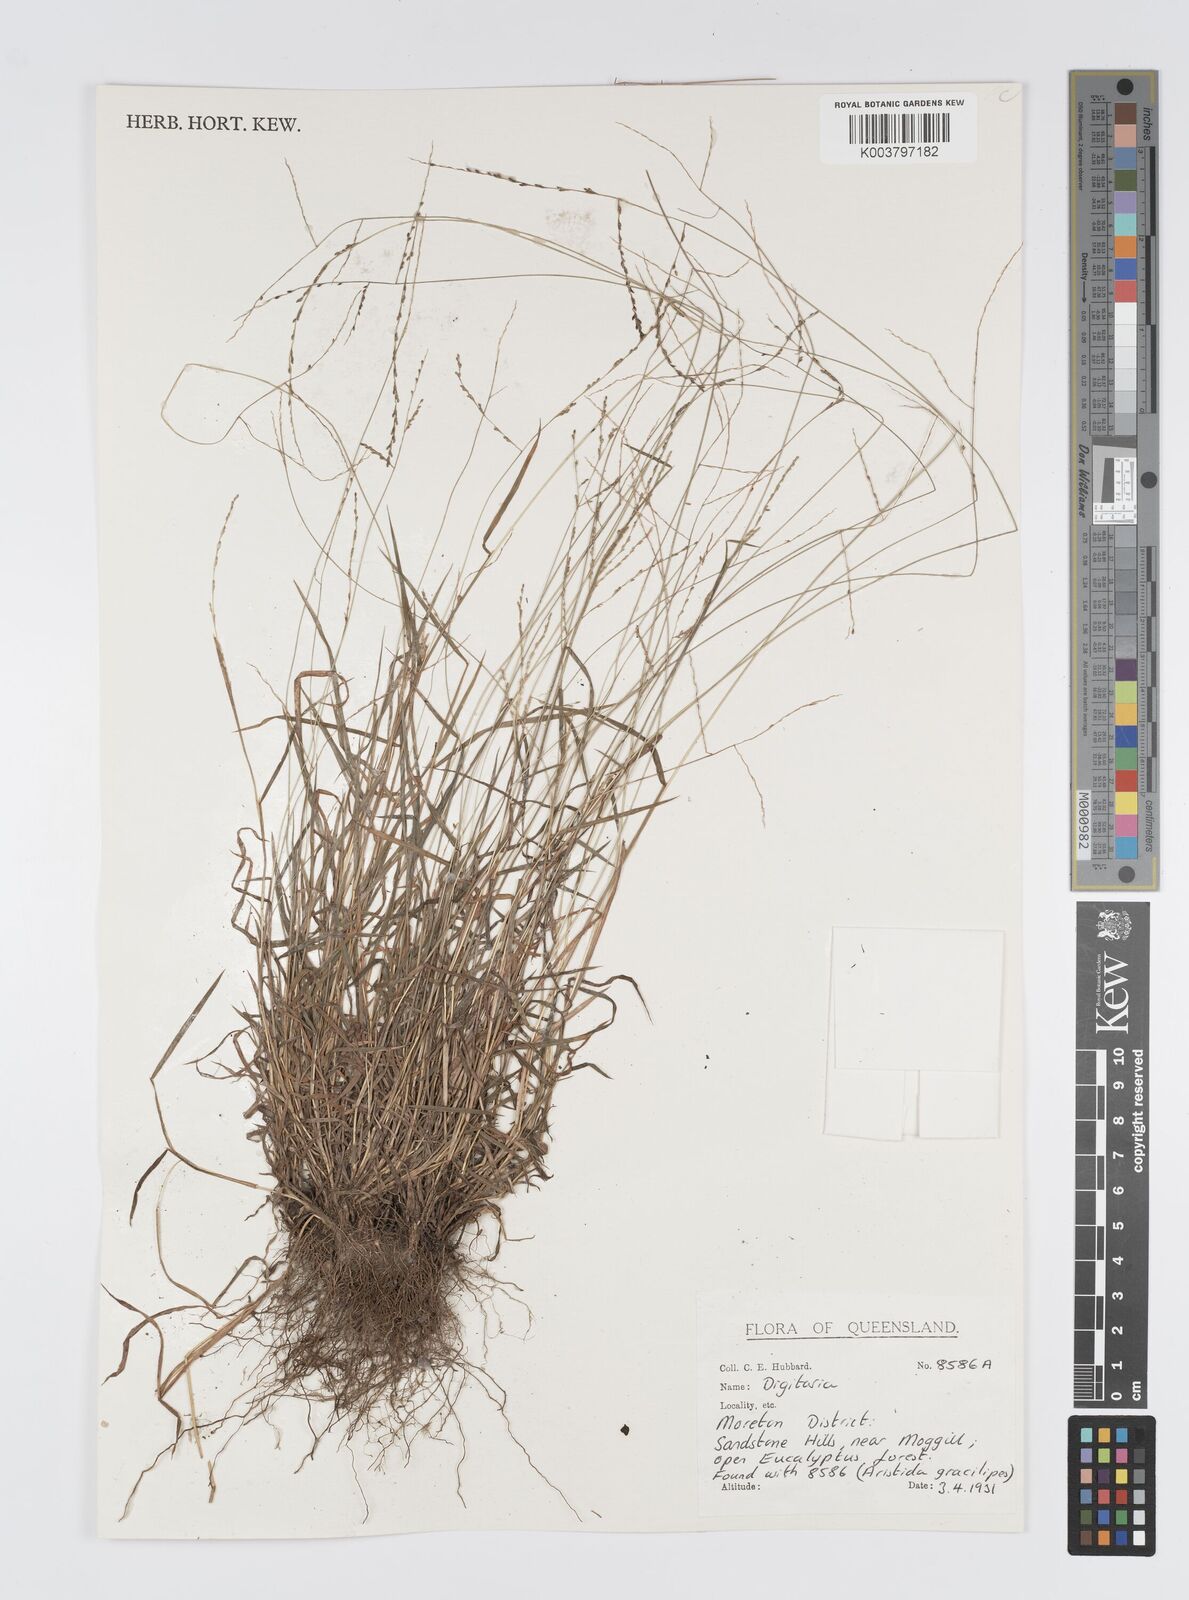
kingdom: Plantae
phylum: Tracheophyta
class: Liliopsida
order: Poales
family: Poaceae
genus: Digitaria
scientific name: Digitaria spec
